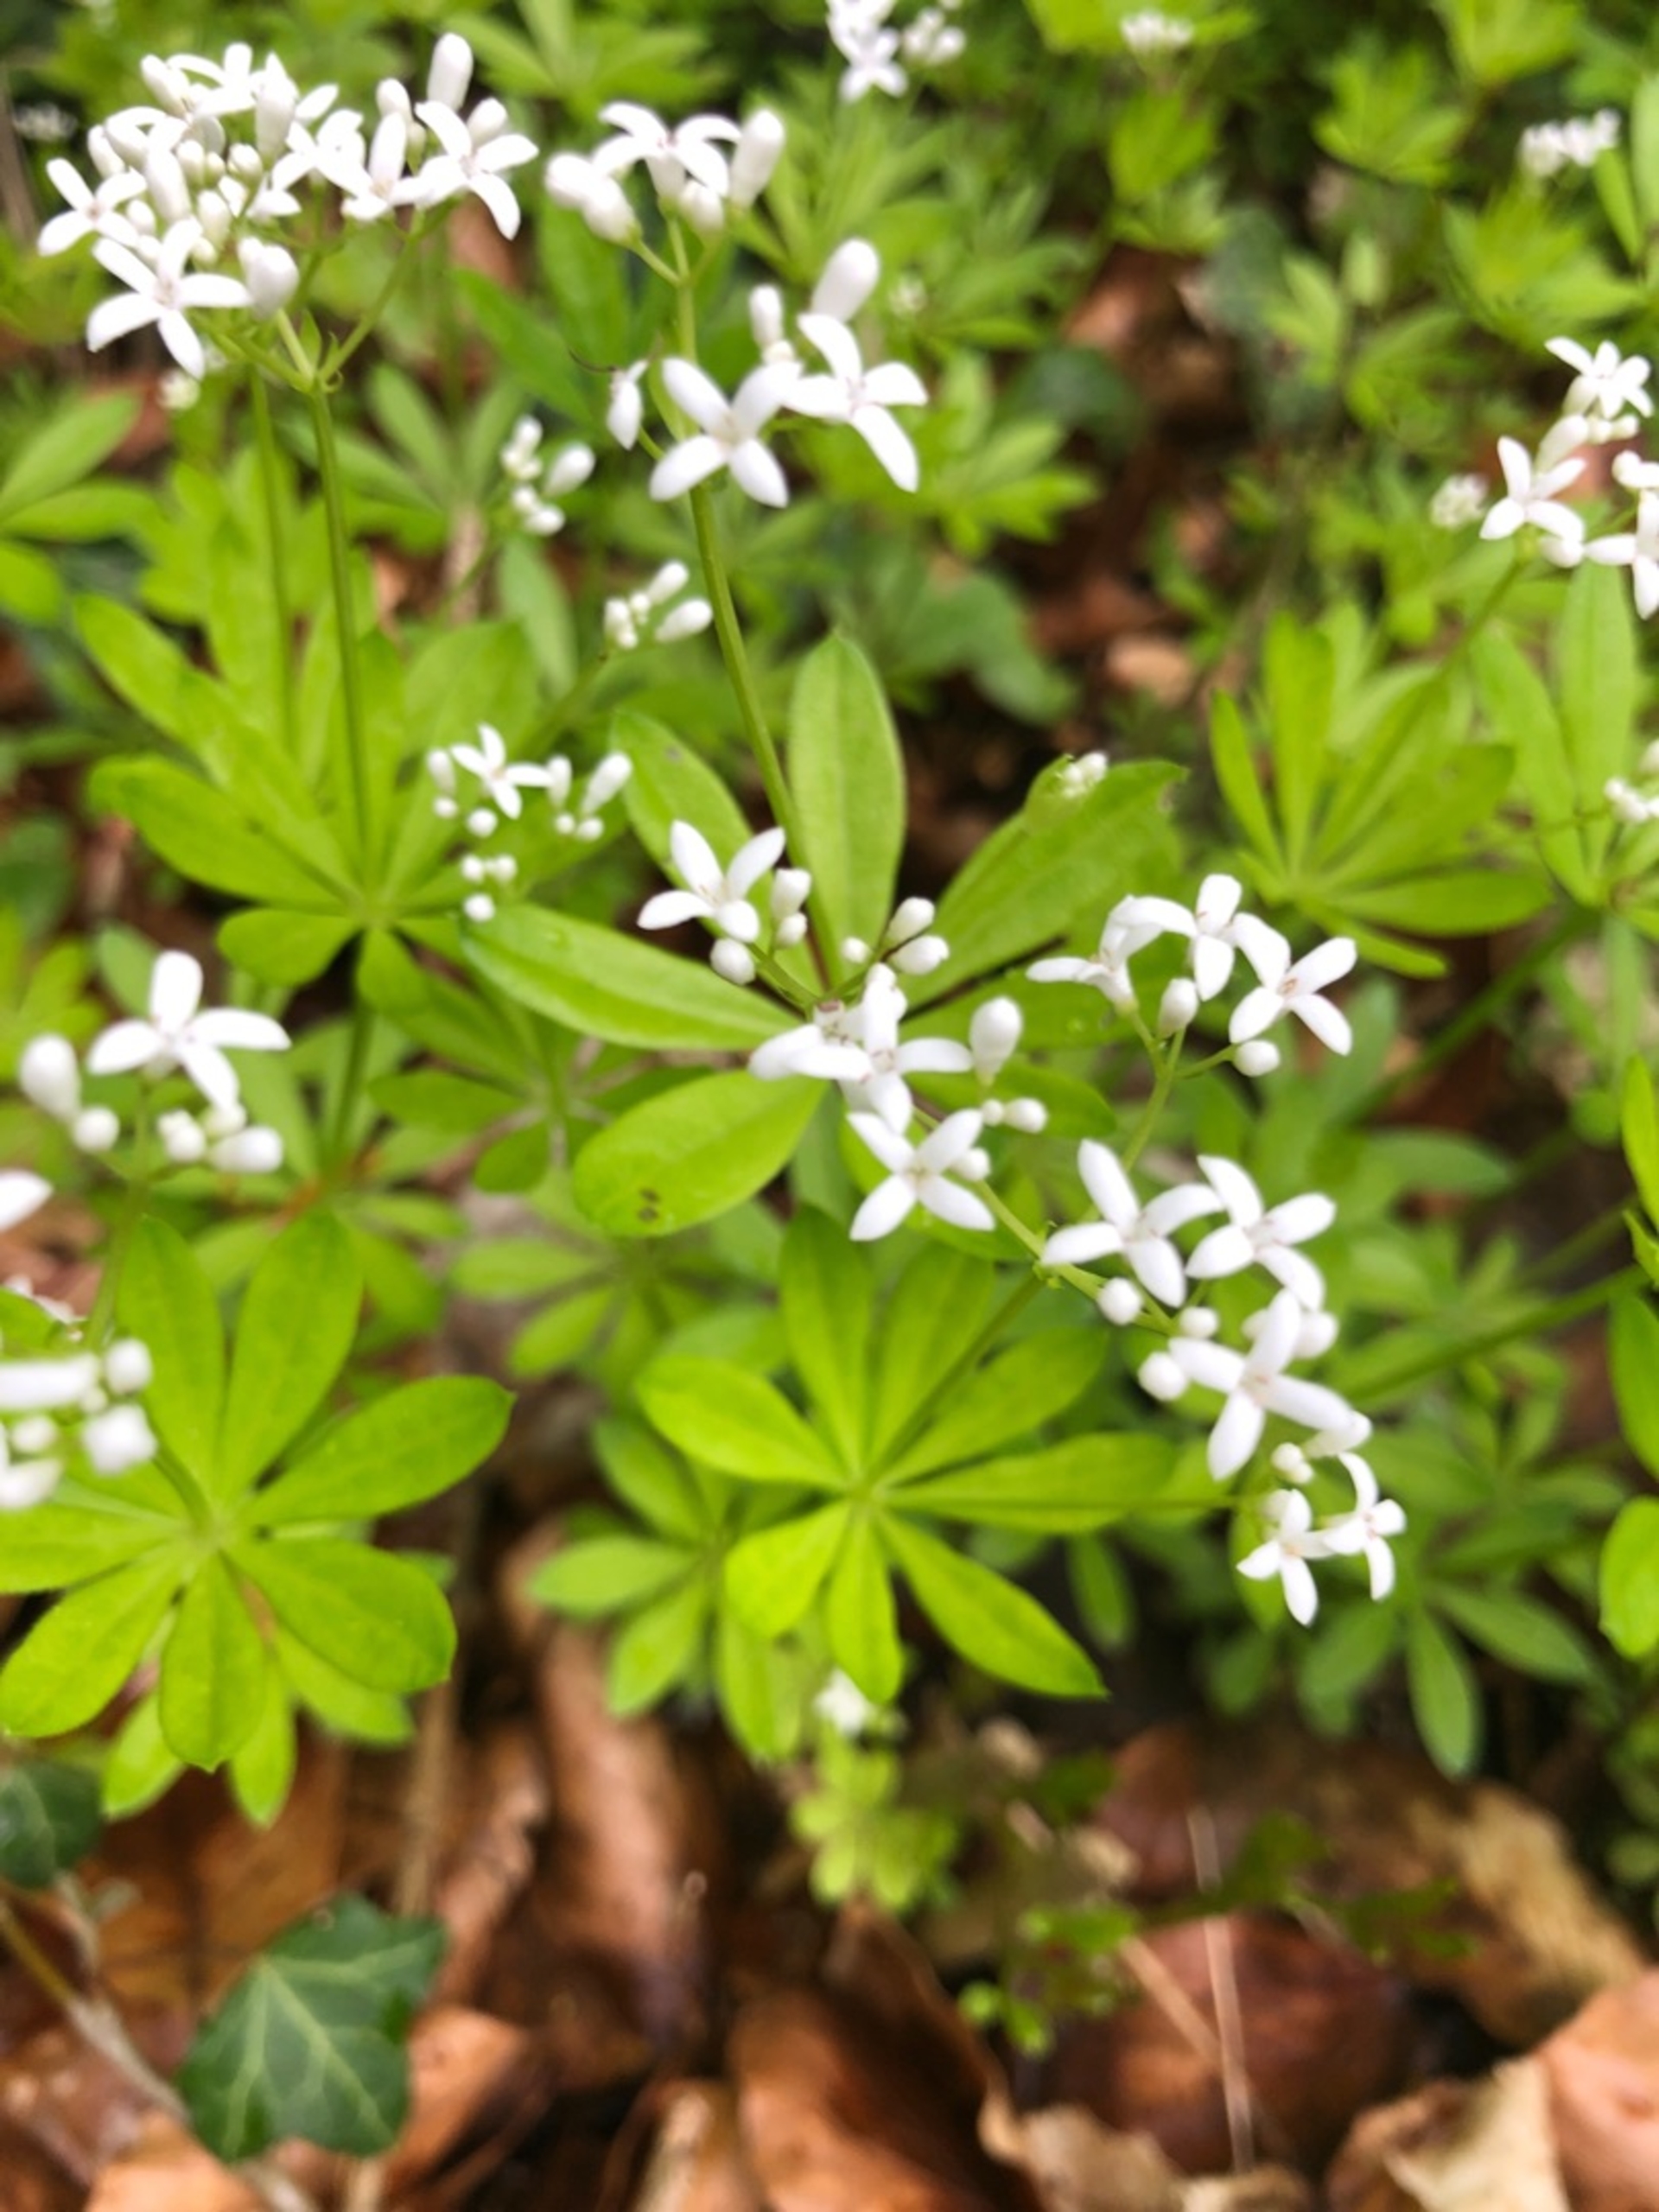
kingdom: Plantae
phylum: Tracheophyta
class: Magnoliopsida
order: Gentianales
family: Rubiaceae
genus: Galium
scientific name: Galium odoratum
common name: Skovmærke
